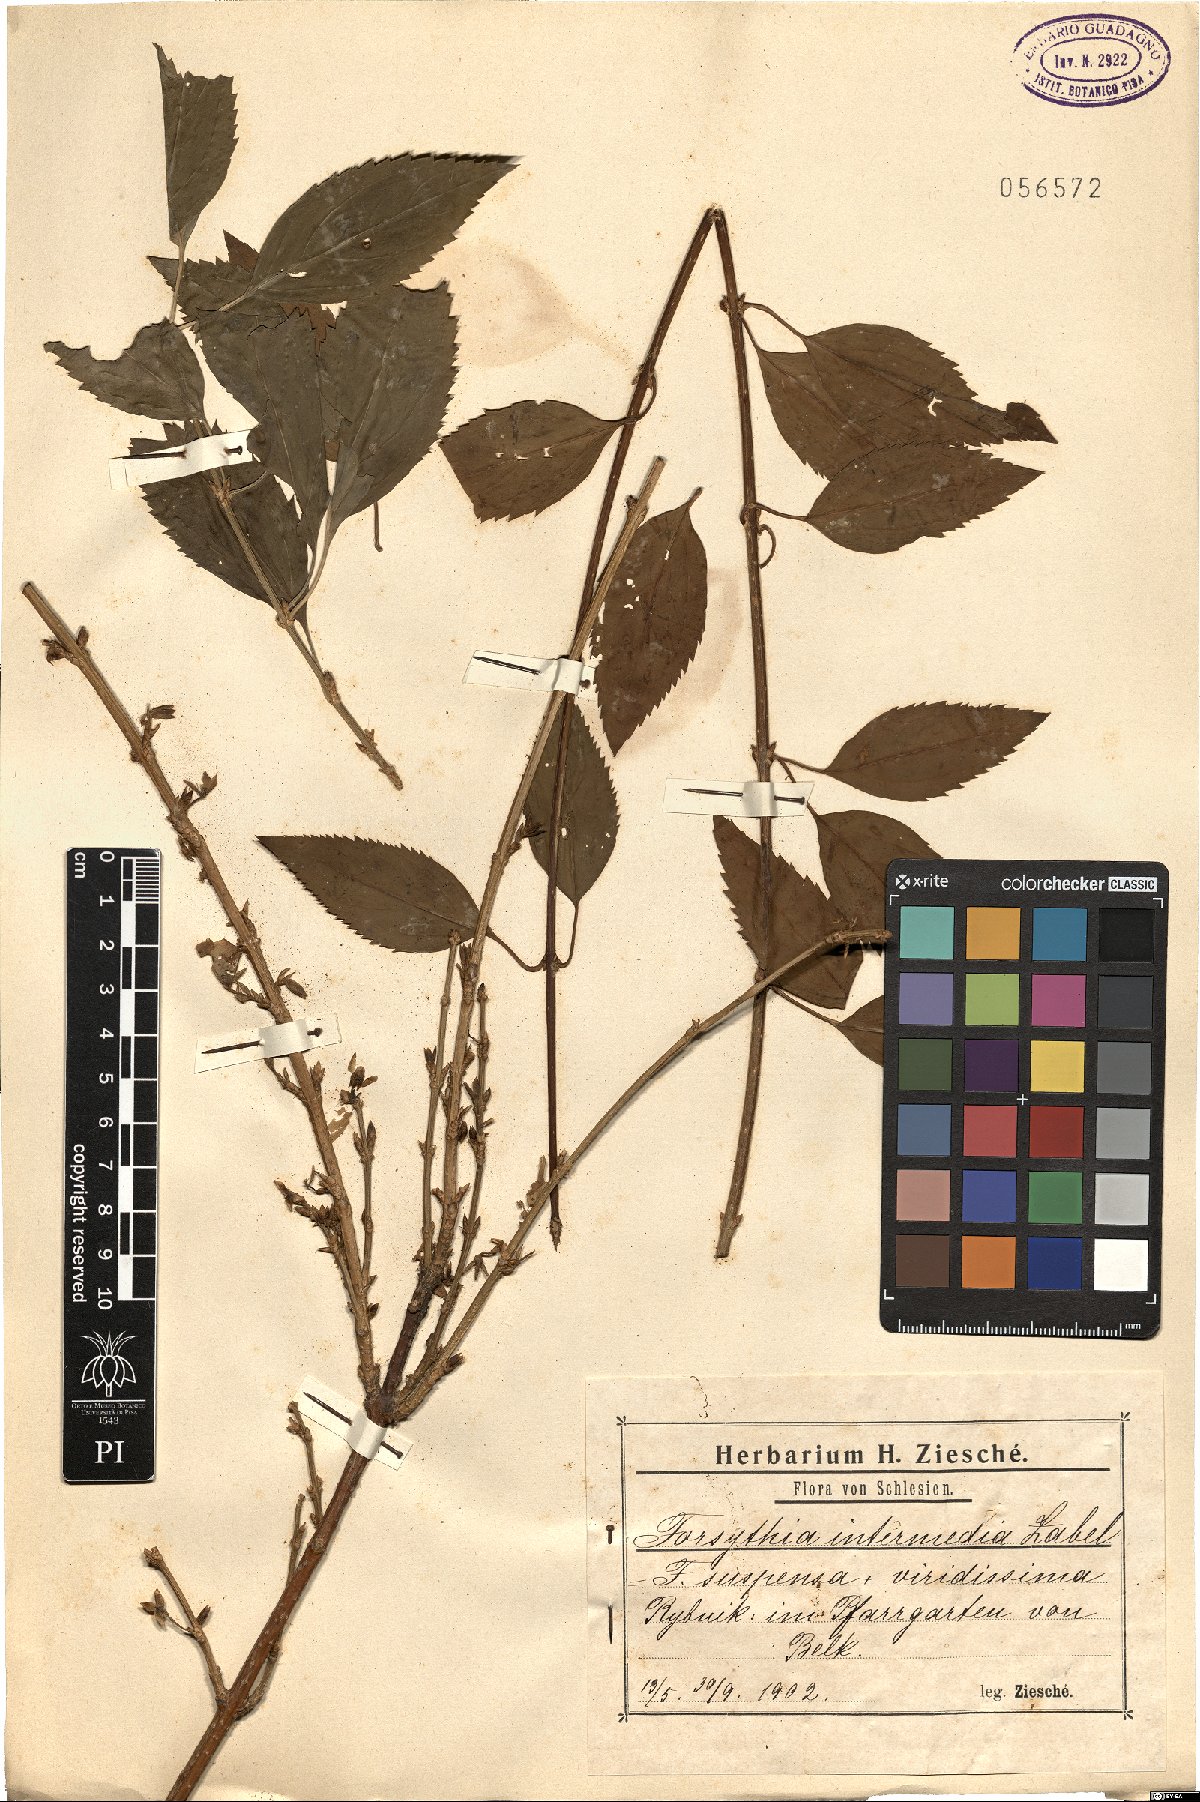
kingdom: Plantae
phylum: Tracheophyta
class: Magnoliopsida
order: Lamiales
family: Oleaceae
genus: Forsythia
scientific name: Forsythia intermedia
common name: Forsythia
